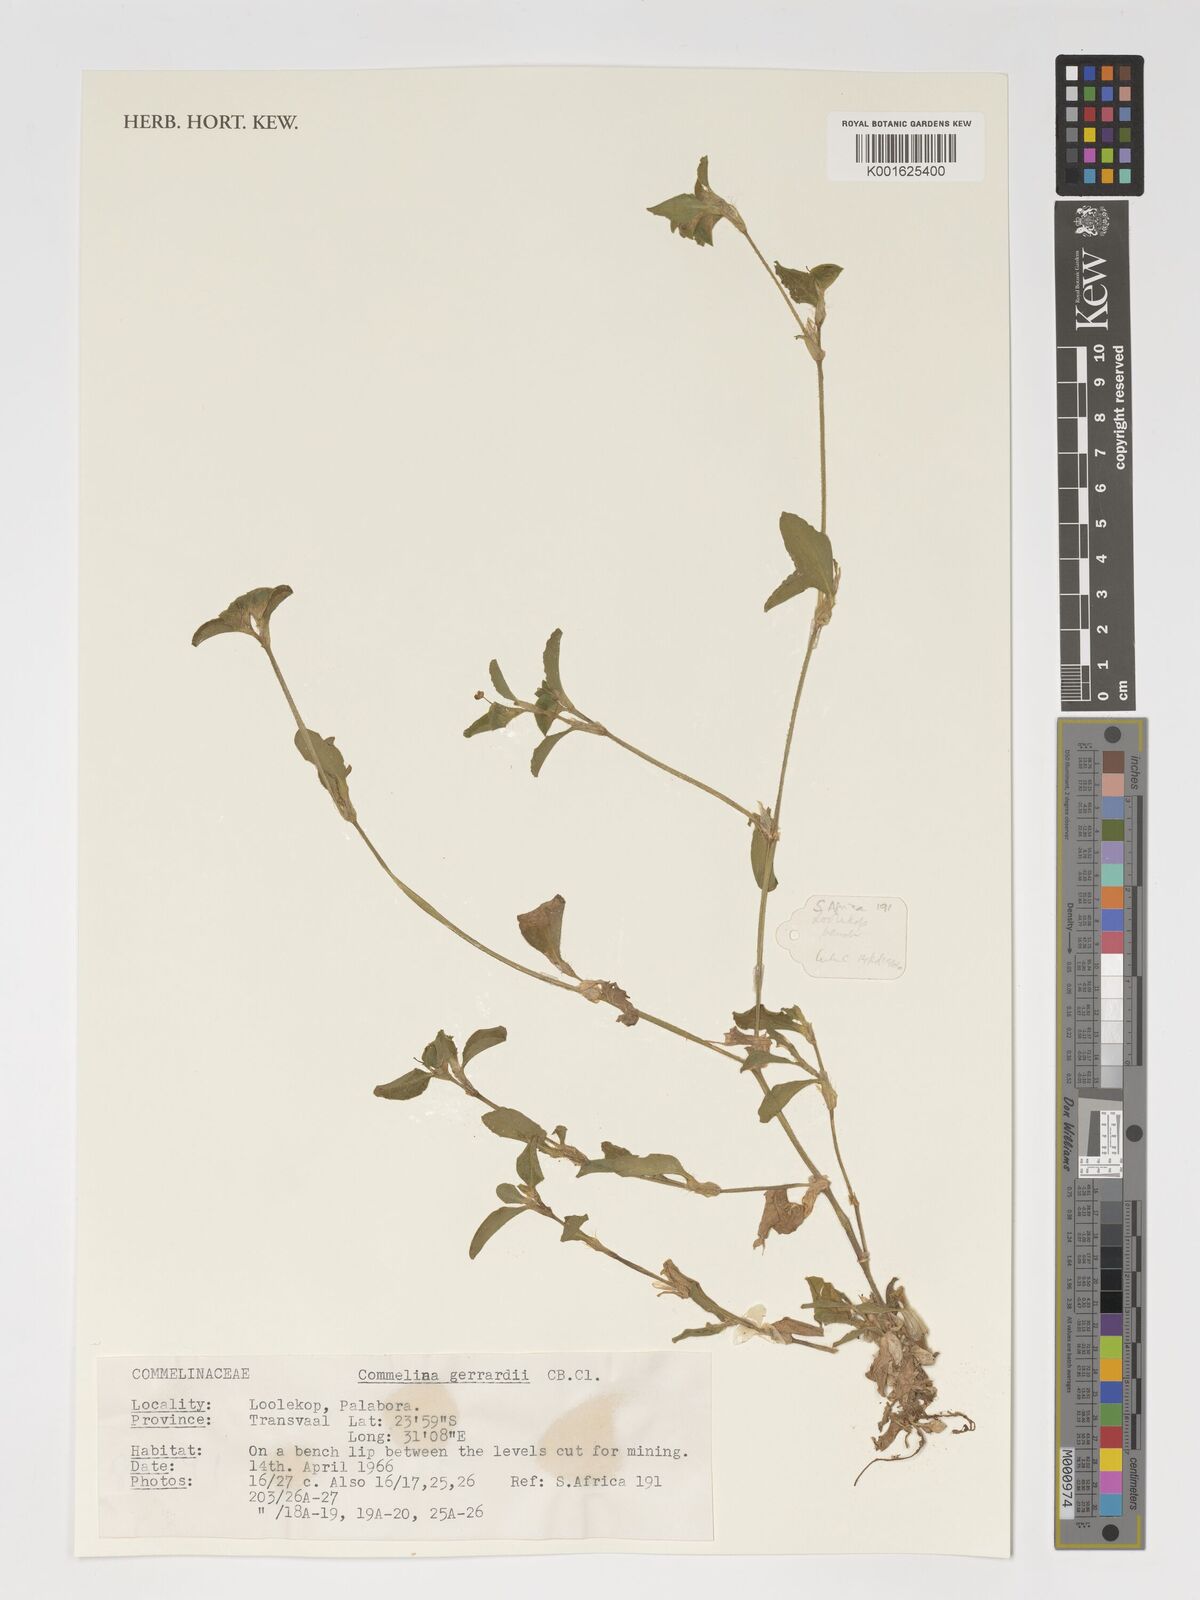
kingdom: Plantae
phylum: Tracheophyta
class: Liliopsida
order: Commelinales
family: Commelinaceae
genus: Commelina
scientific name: Commelina erecta
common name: Blousel blommetjie
